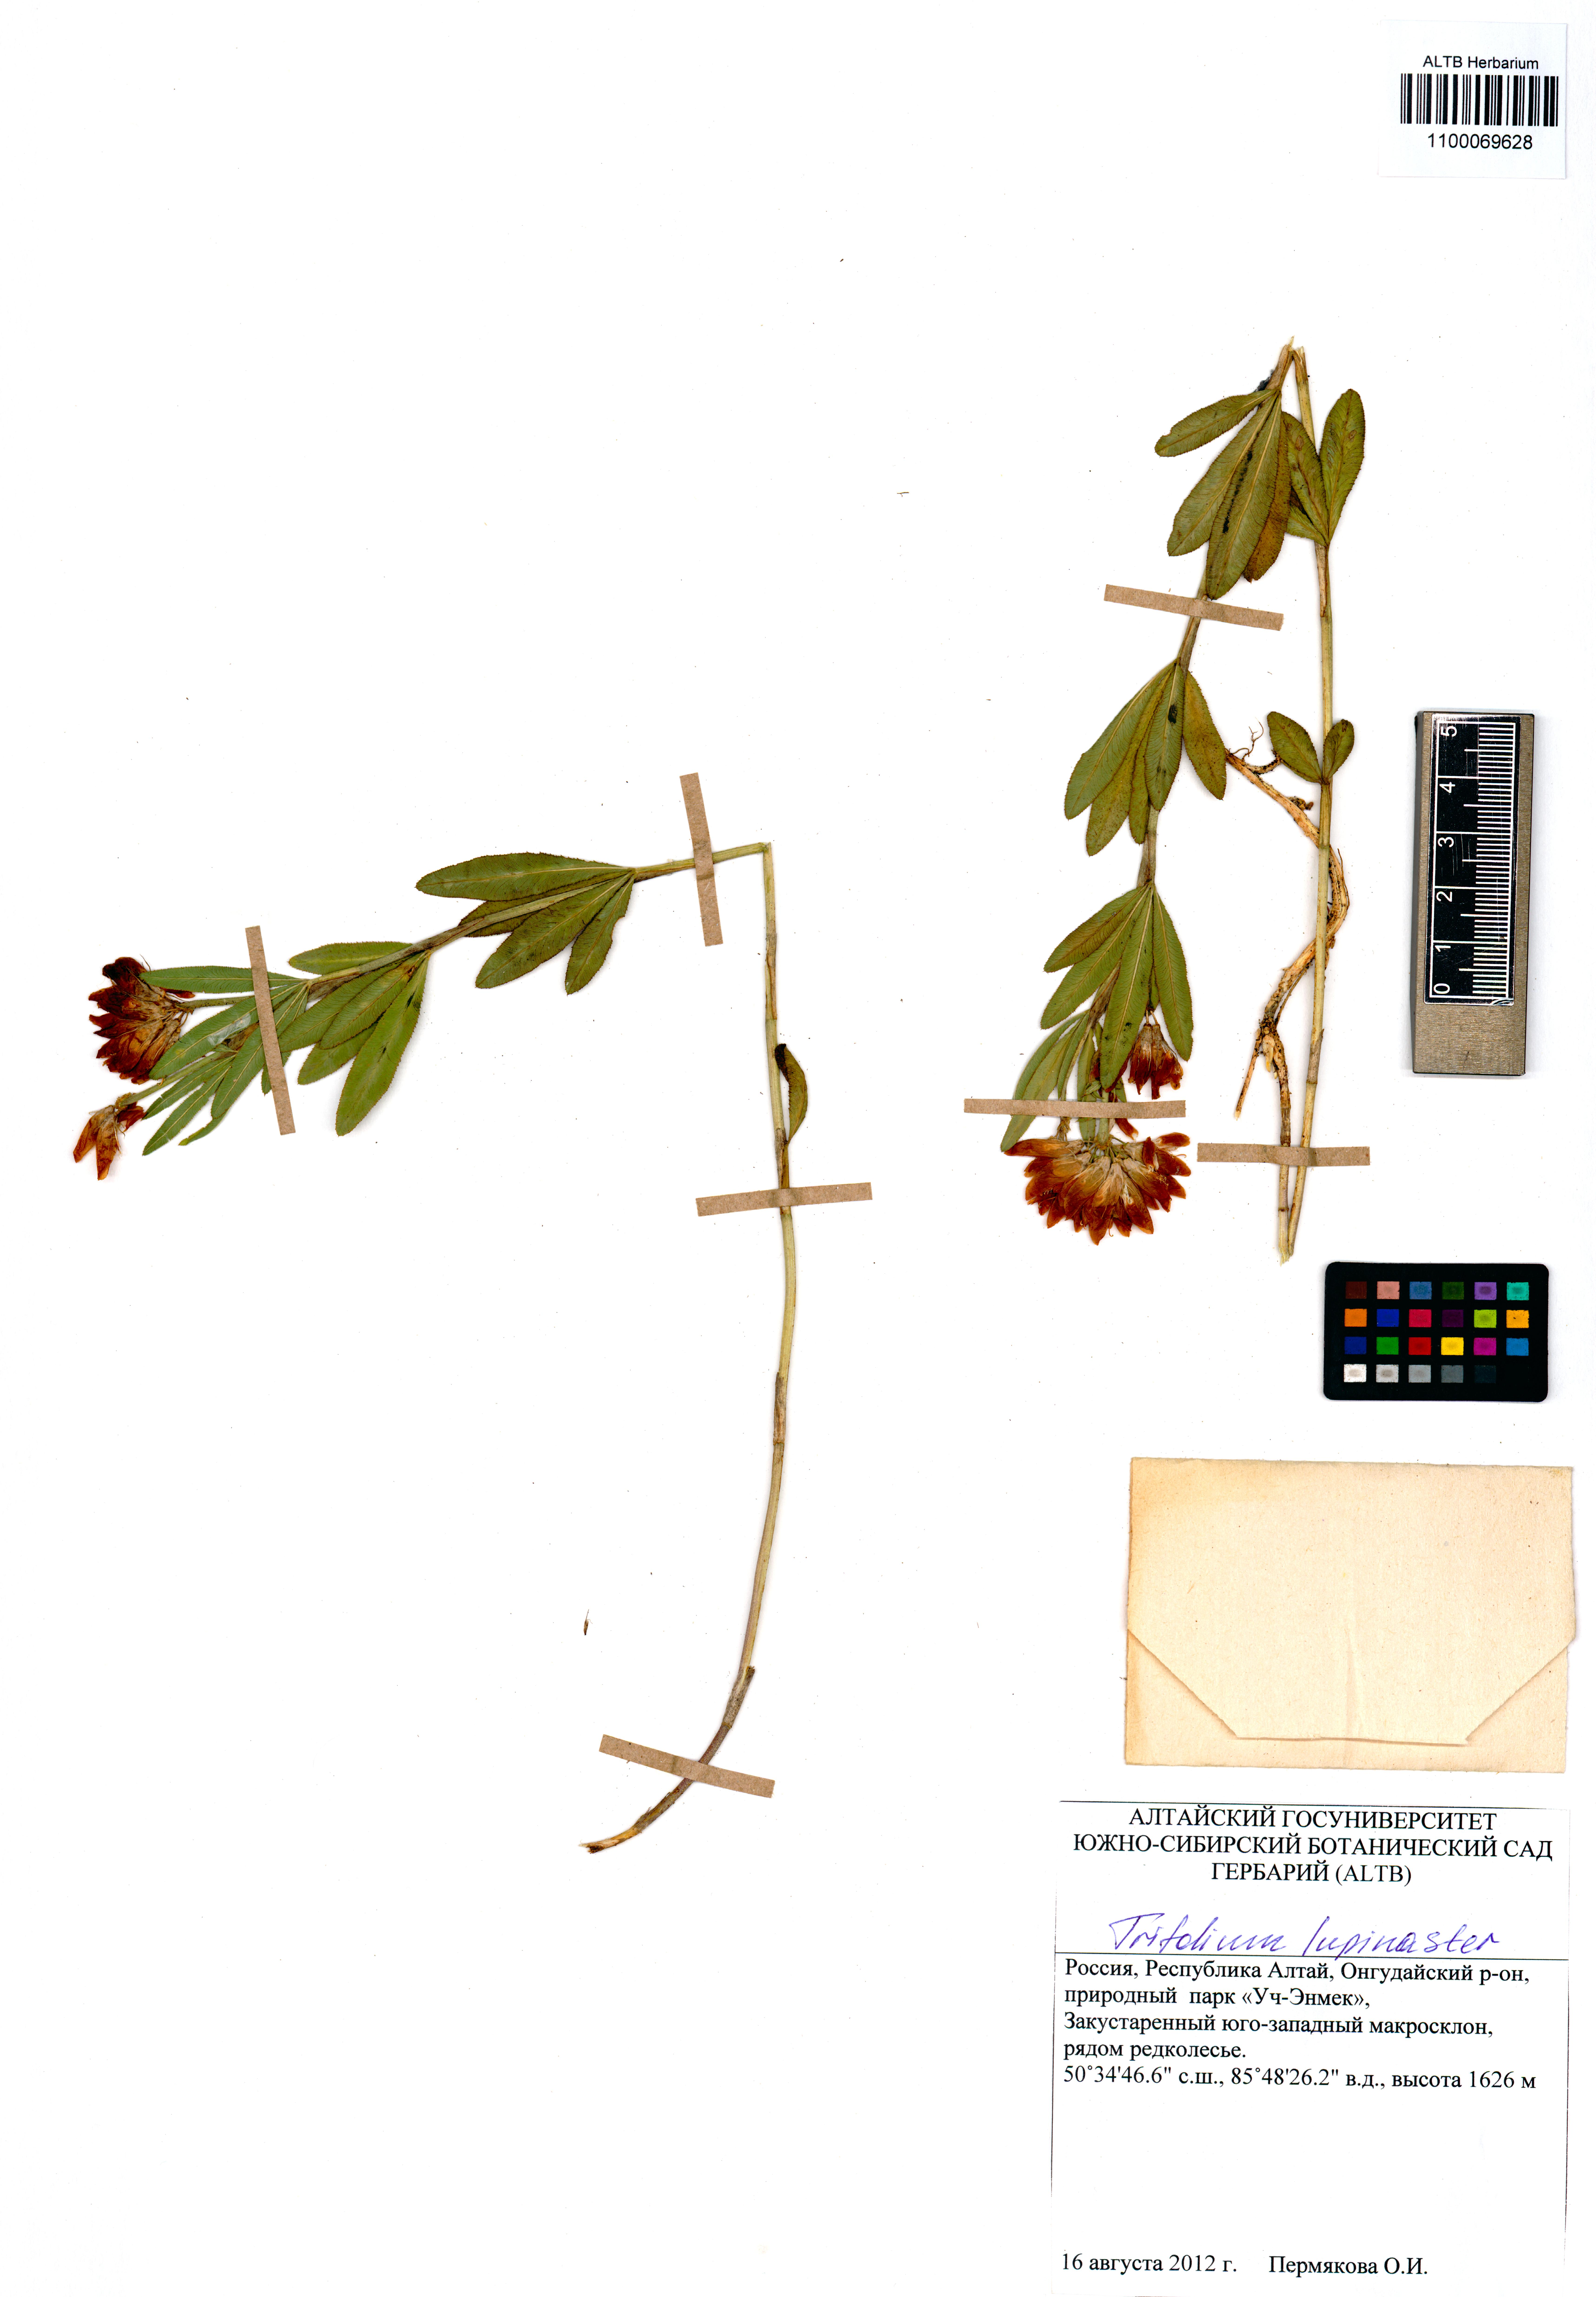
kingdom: Plantae
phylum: Tracheophyta
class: Magnoliopsida
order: Fabales
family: Fabaceae
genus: Trifolium
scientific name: Trifolium lupinaster
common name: Lupine clover
